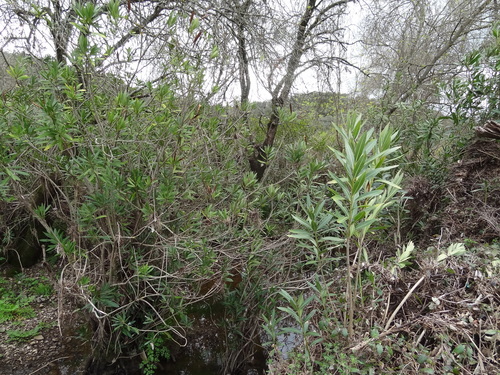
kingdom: Plantae
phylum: Tracheophyta
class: Magnoliopsida
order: Gentianales
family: Apocynaceae
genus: Nerium
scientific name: Nerium oleander
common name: Oleander
